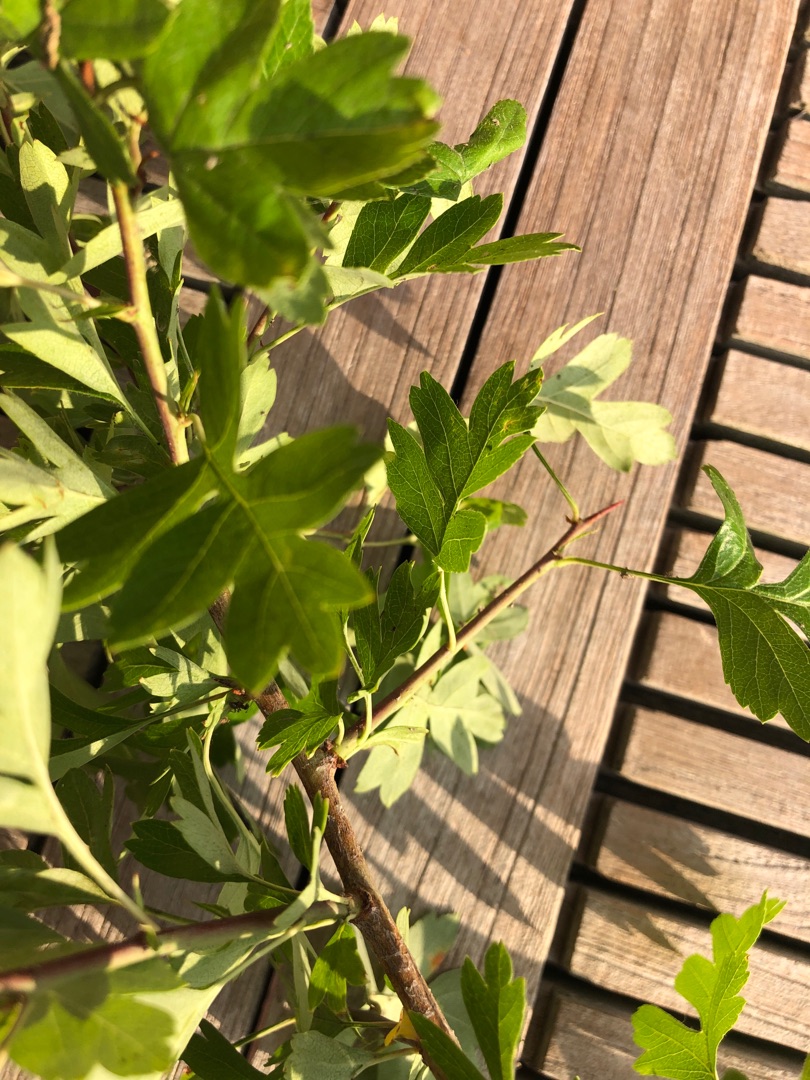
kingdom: Plantae
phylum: Tracheophyta
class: Magnoliopsida
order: Rosales
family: Rosaceae
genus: Crataegus
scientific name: Crataegus monogyna
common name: Engriflet hvidtjørn
